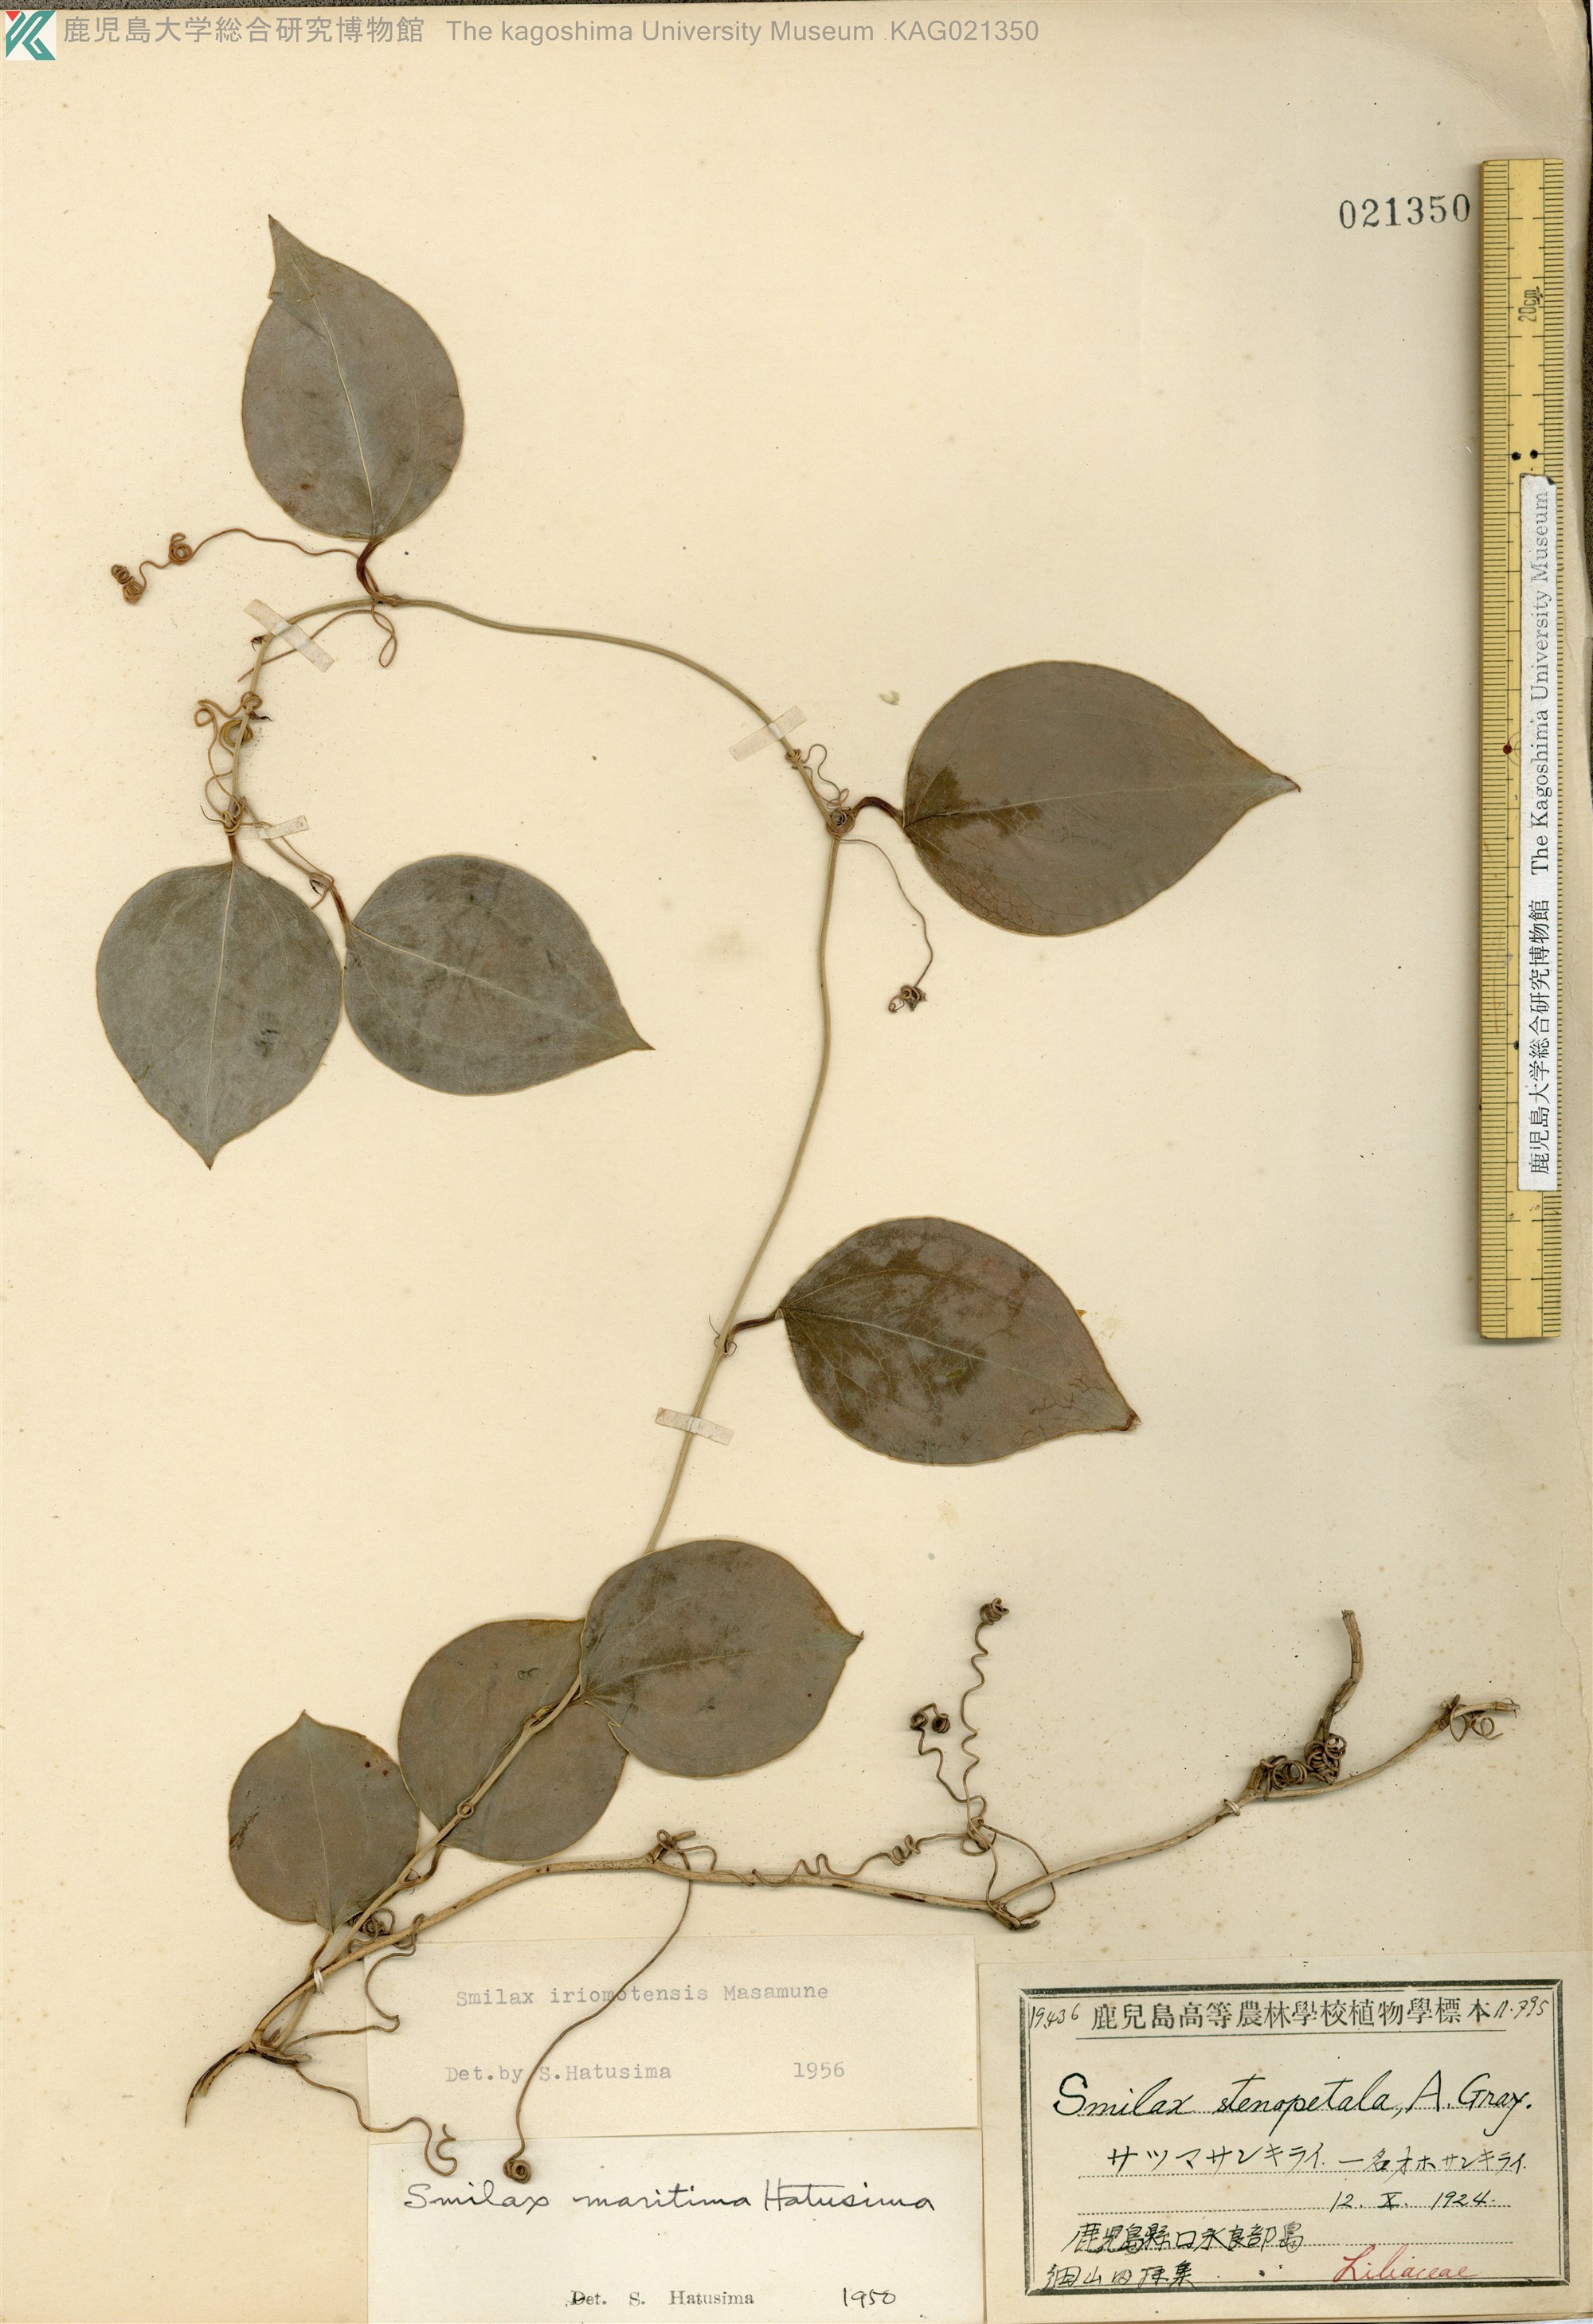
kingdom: Plantae
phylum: Tracheophyta
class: Liliopsida
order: Liliales
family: Smilacaceae
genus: Smilax
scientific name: Smilax sebeana
